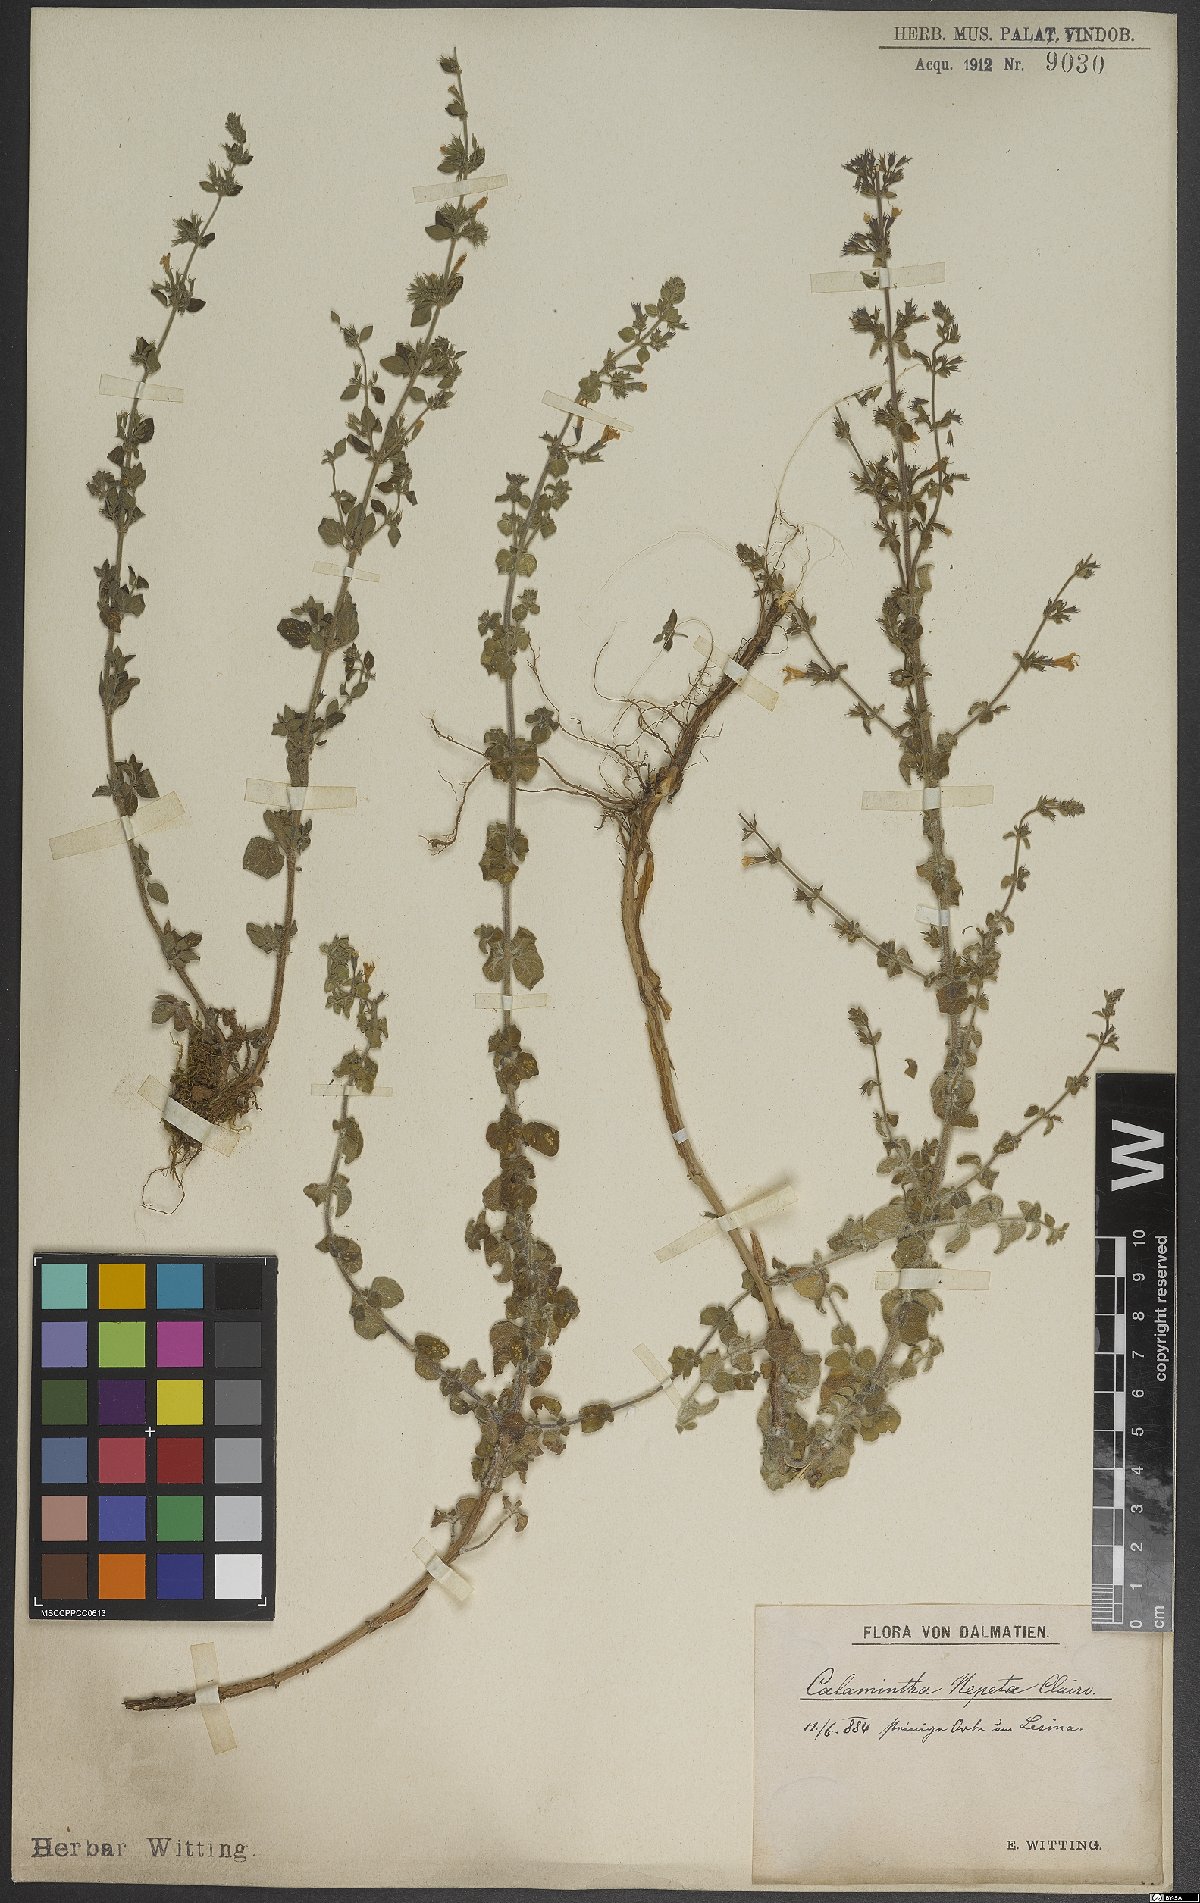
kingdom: Plantae
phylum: Tracheophyta
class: Magnoliopsida
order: Lamiales
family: Lamiaceae
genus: Clinopodium
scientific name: Clinopodium nepeta
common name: Lesser calamint
